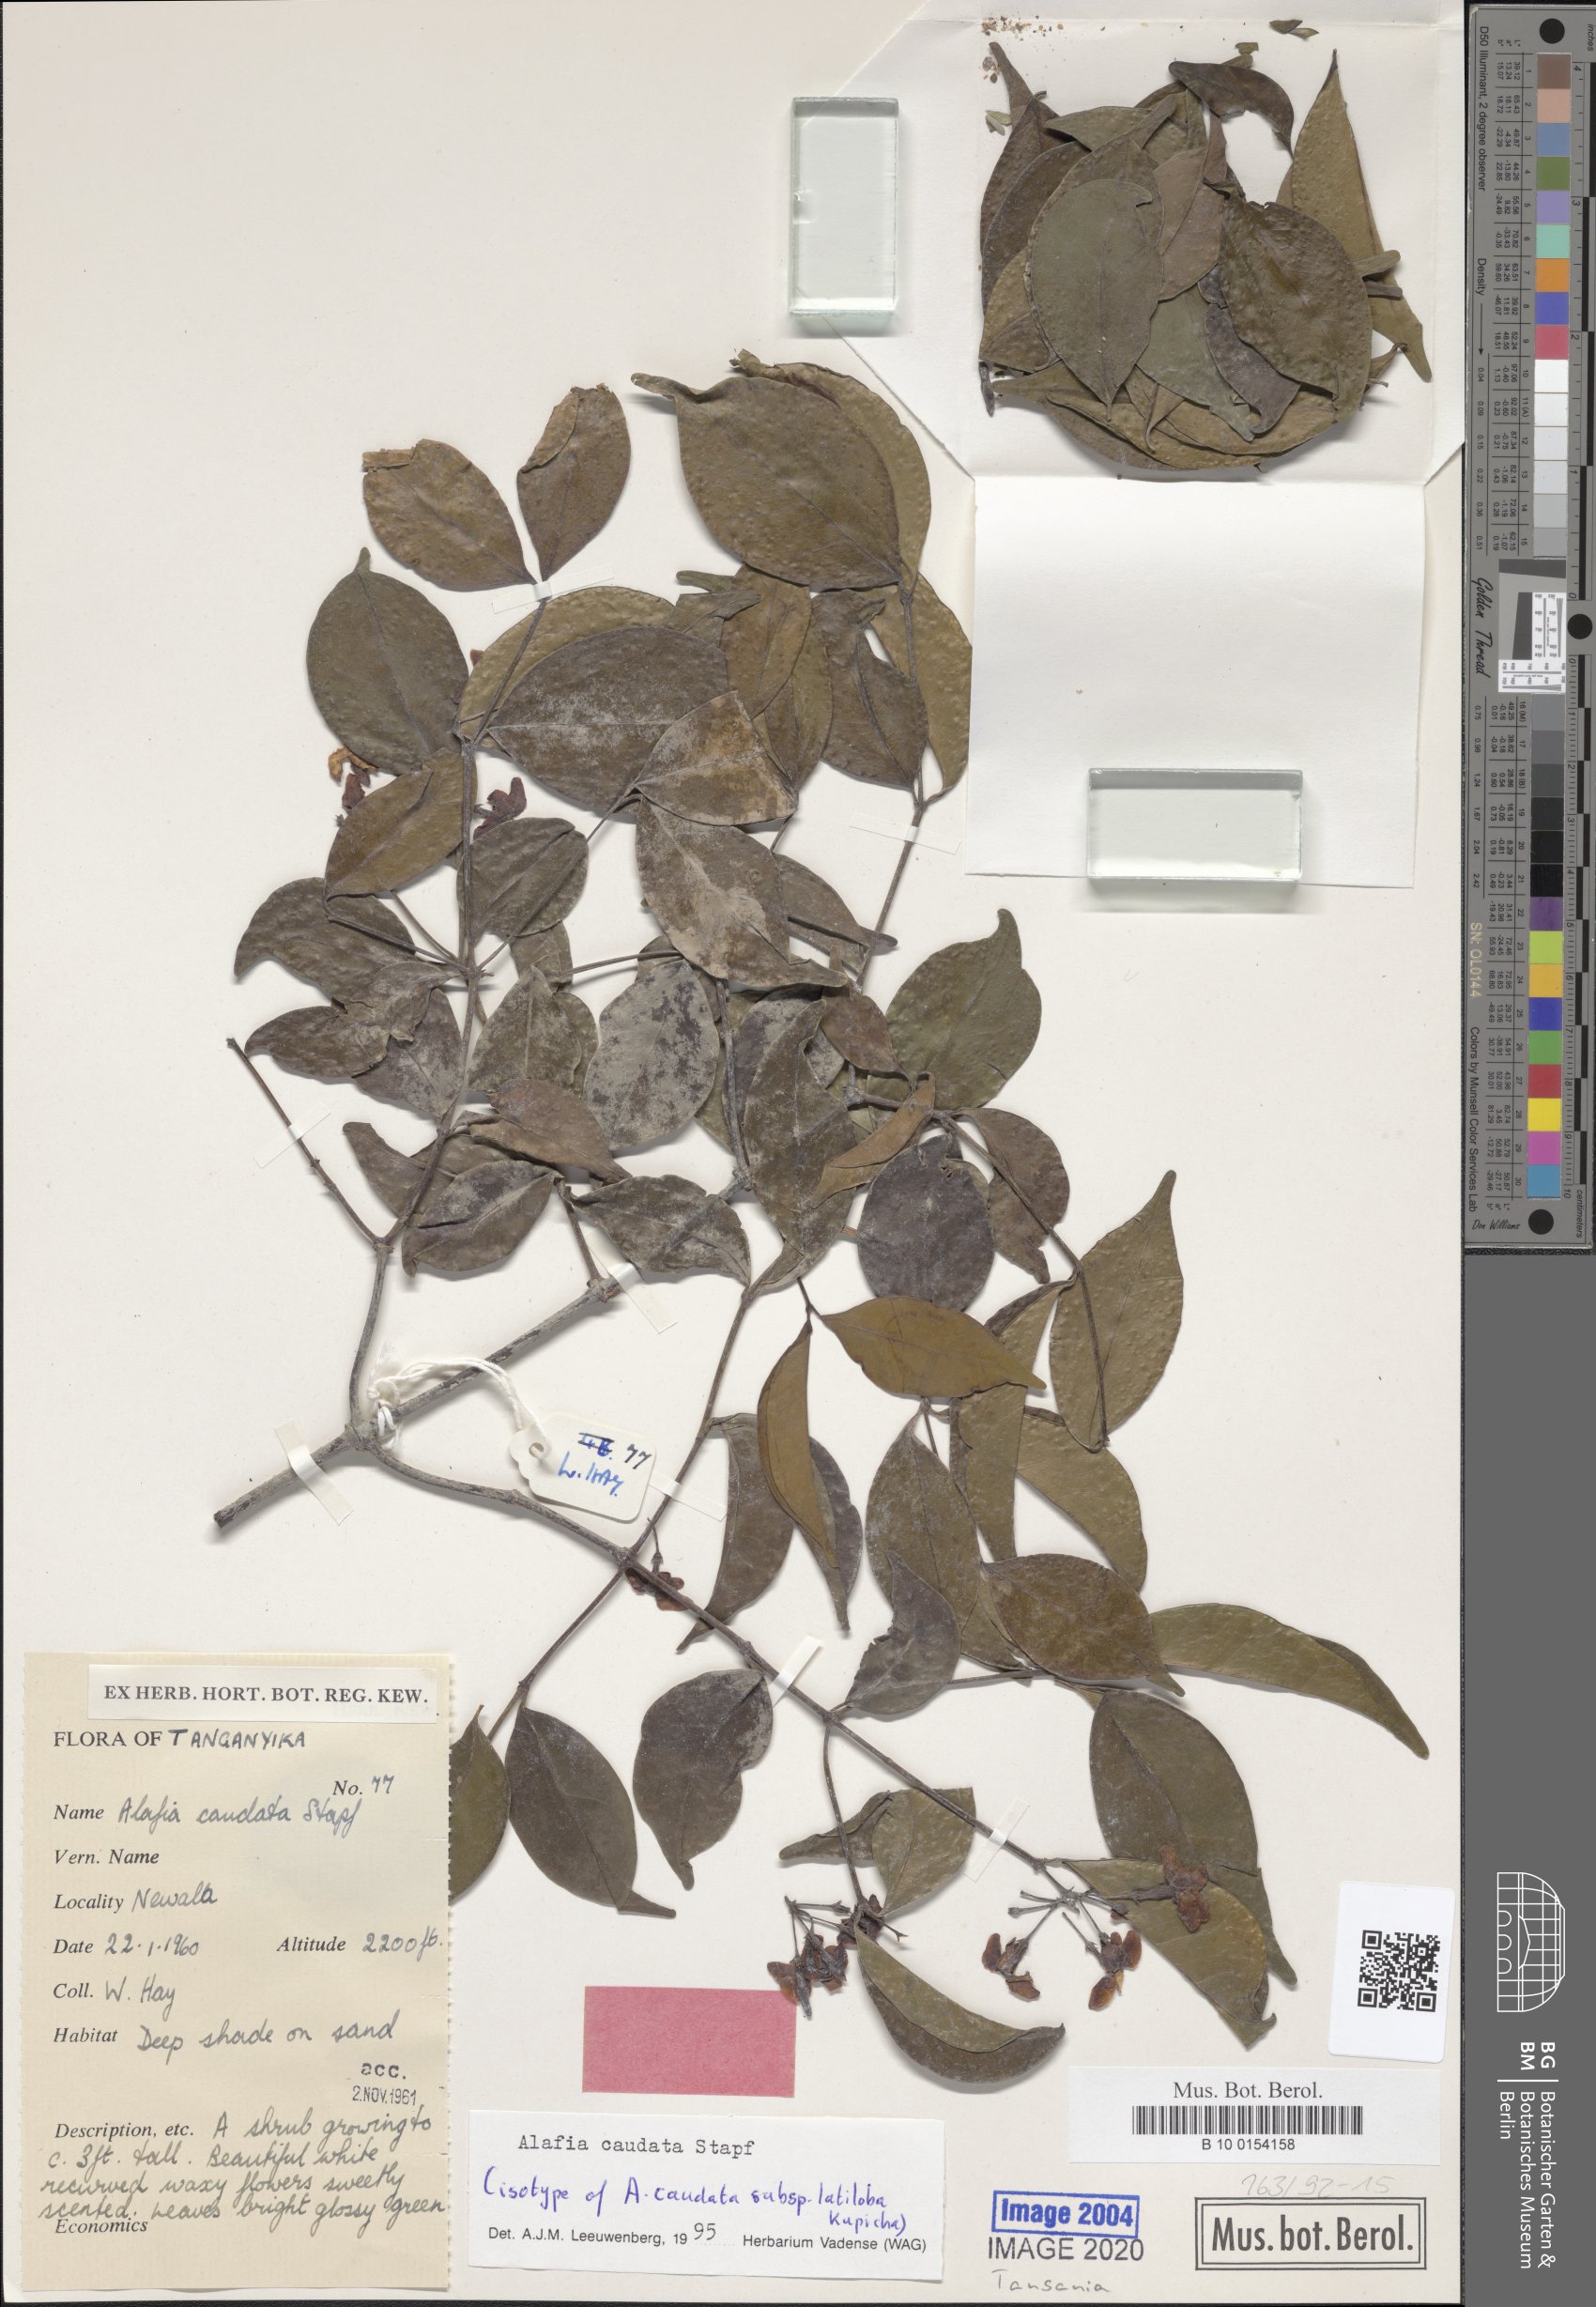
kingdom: Plantae
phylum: Tracheophyta
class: Magnoliopsida
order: Gentianales
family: Apocynaceae
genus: Alafia
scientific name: Alafia caudata
